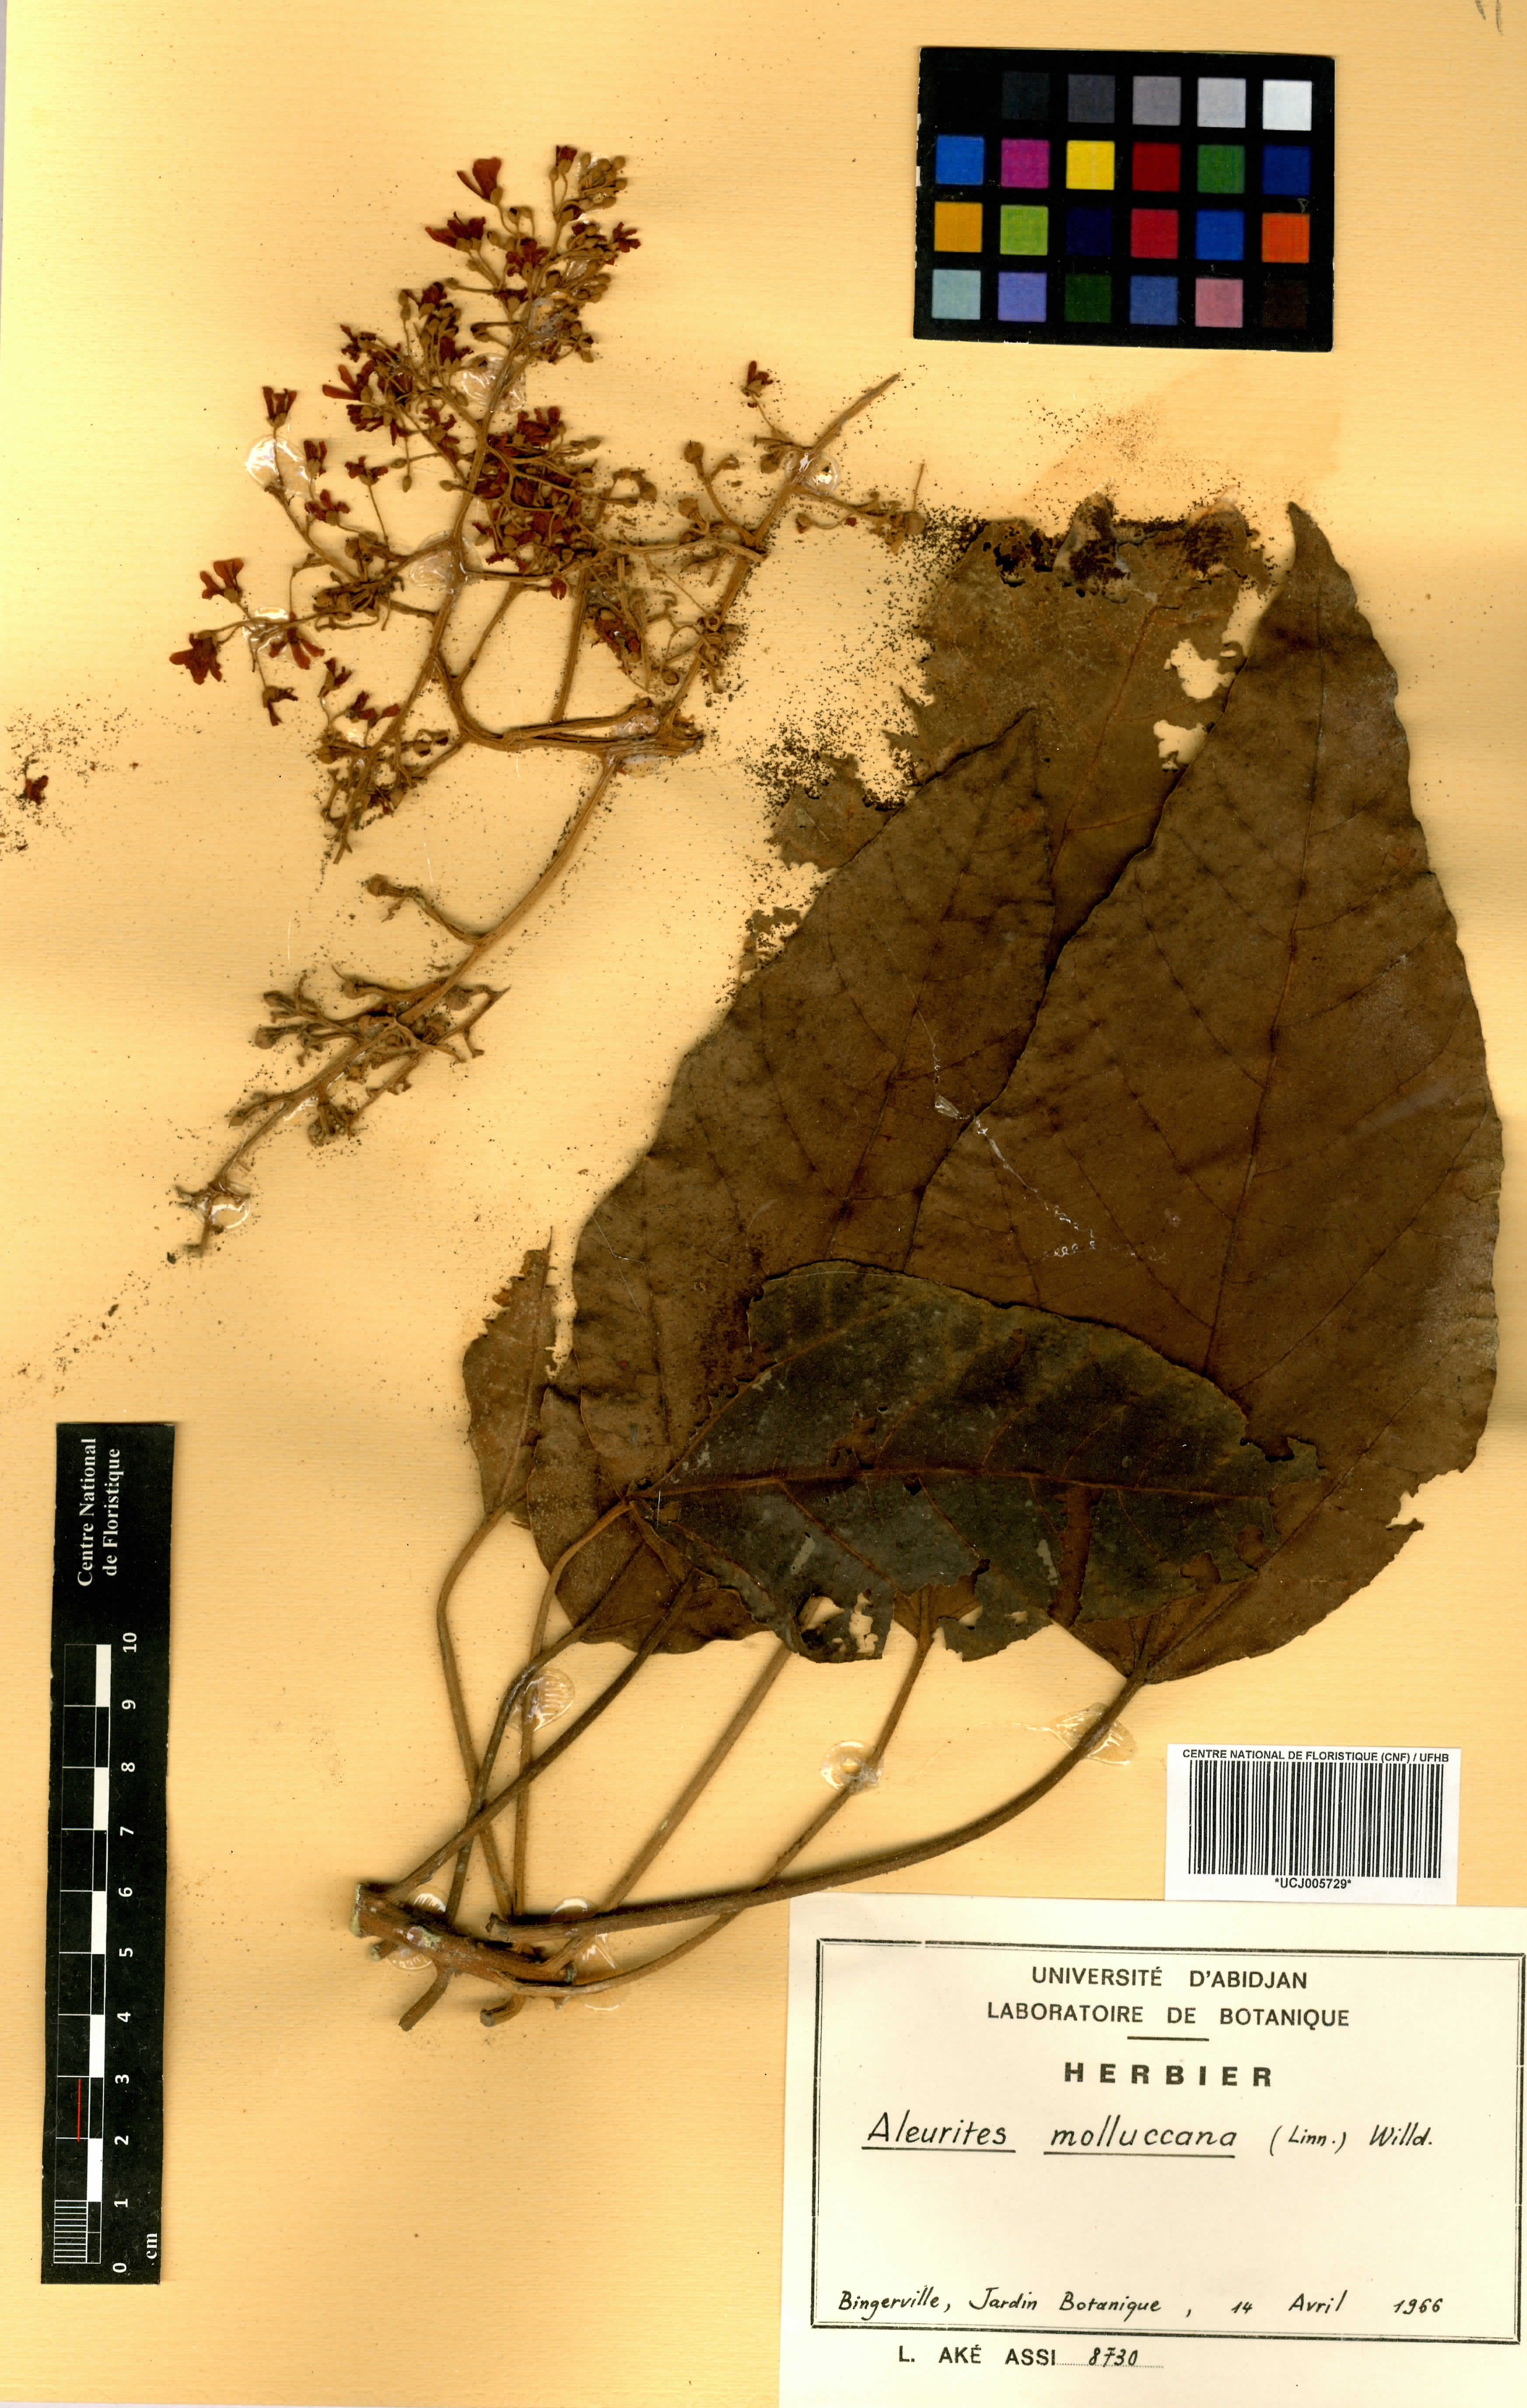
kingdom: Plantae
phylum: Tracheophyta
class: Magnoliopsida
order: Malpighiales
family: Euphorbiaceae
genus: Aleurites
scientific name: Aleurites moluccanus
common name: Candlenut tree
